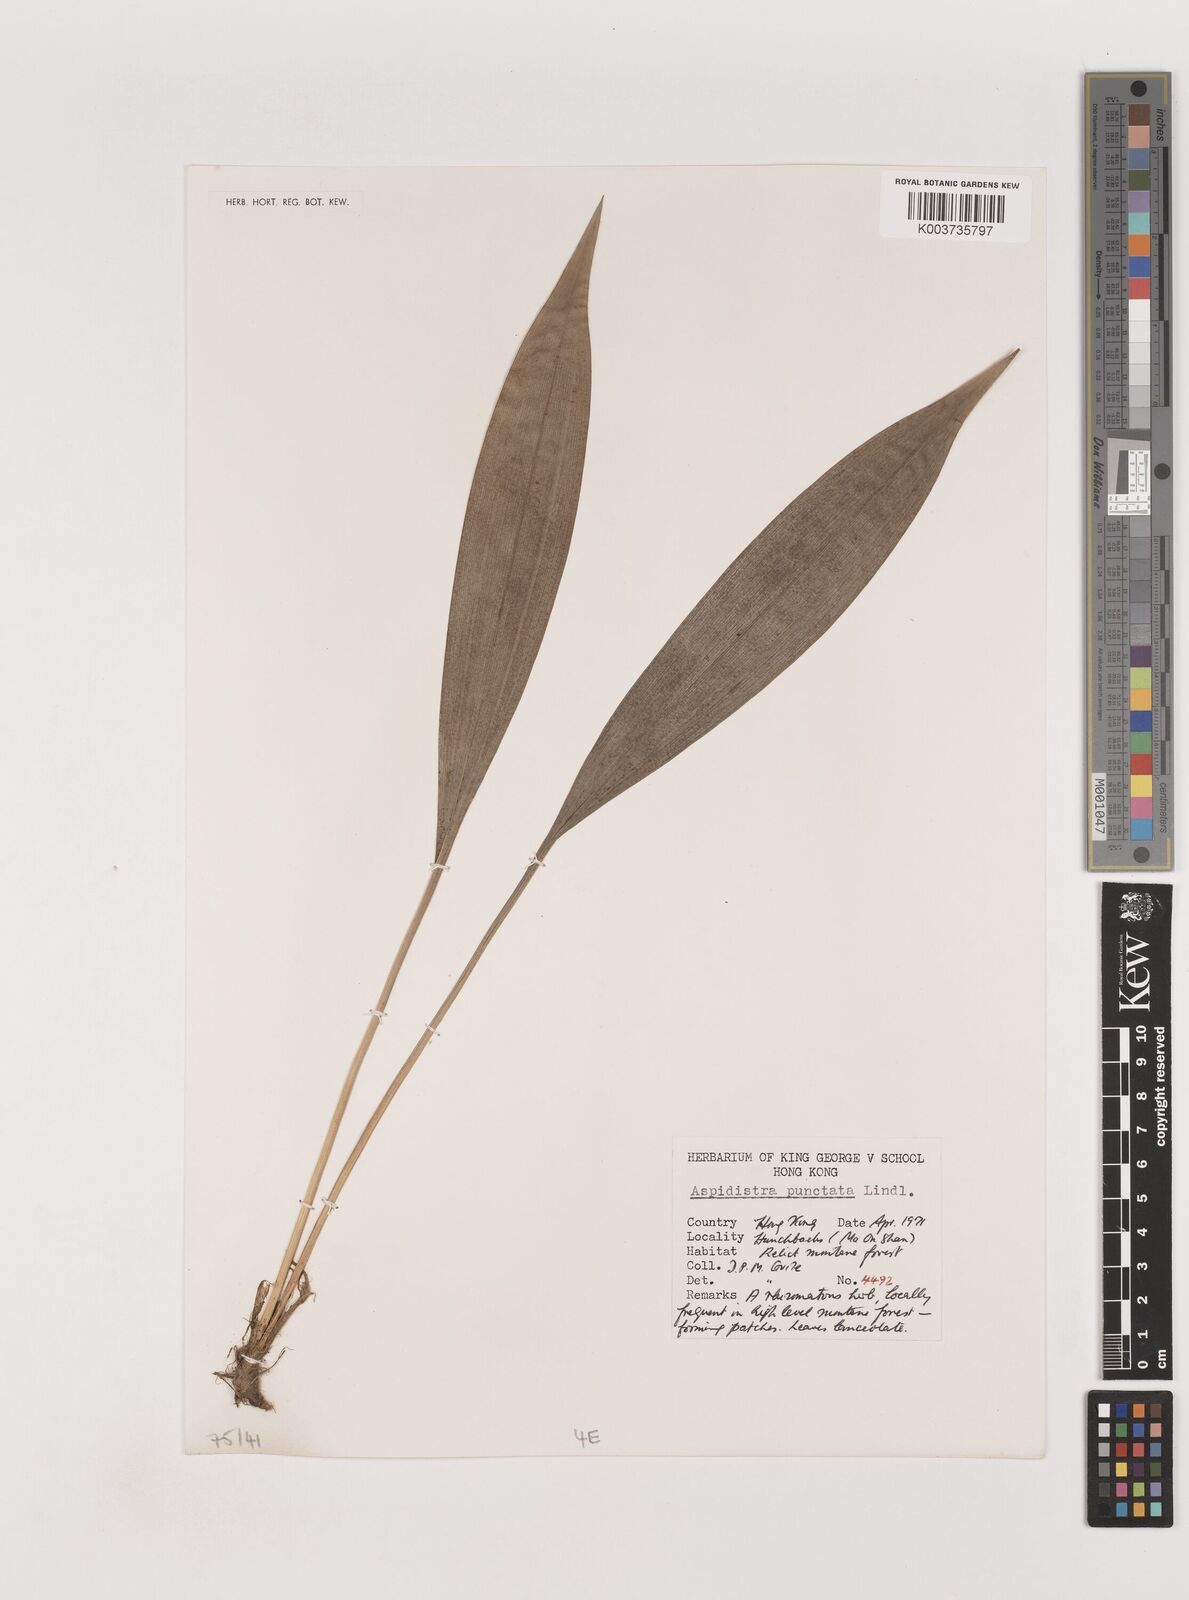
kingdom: Plantae
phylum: Tracheophyta
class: Liliopsida
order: Asparagales
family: Asparagaceae
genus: Aspidistra
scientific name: Aspidistra elatior
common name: Cast-iron-plant
